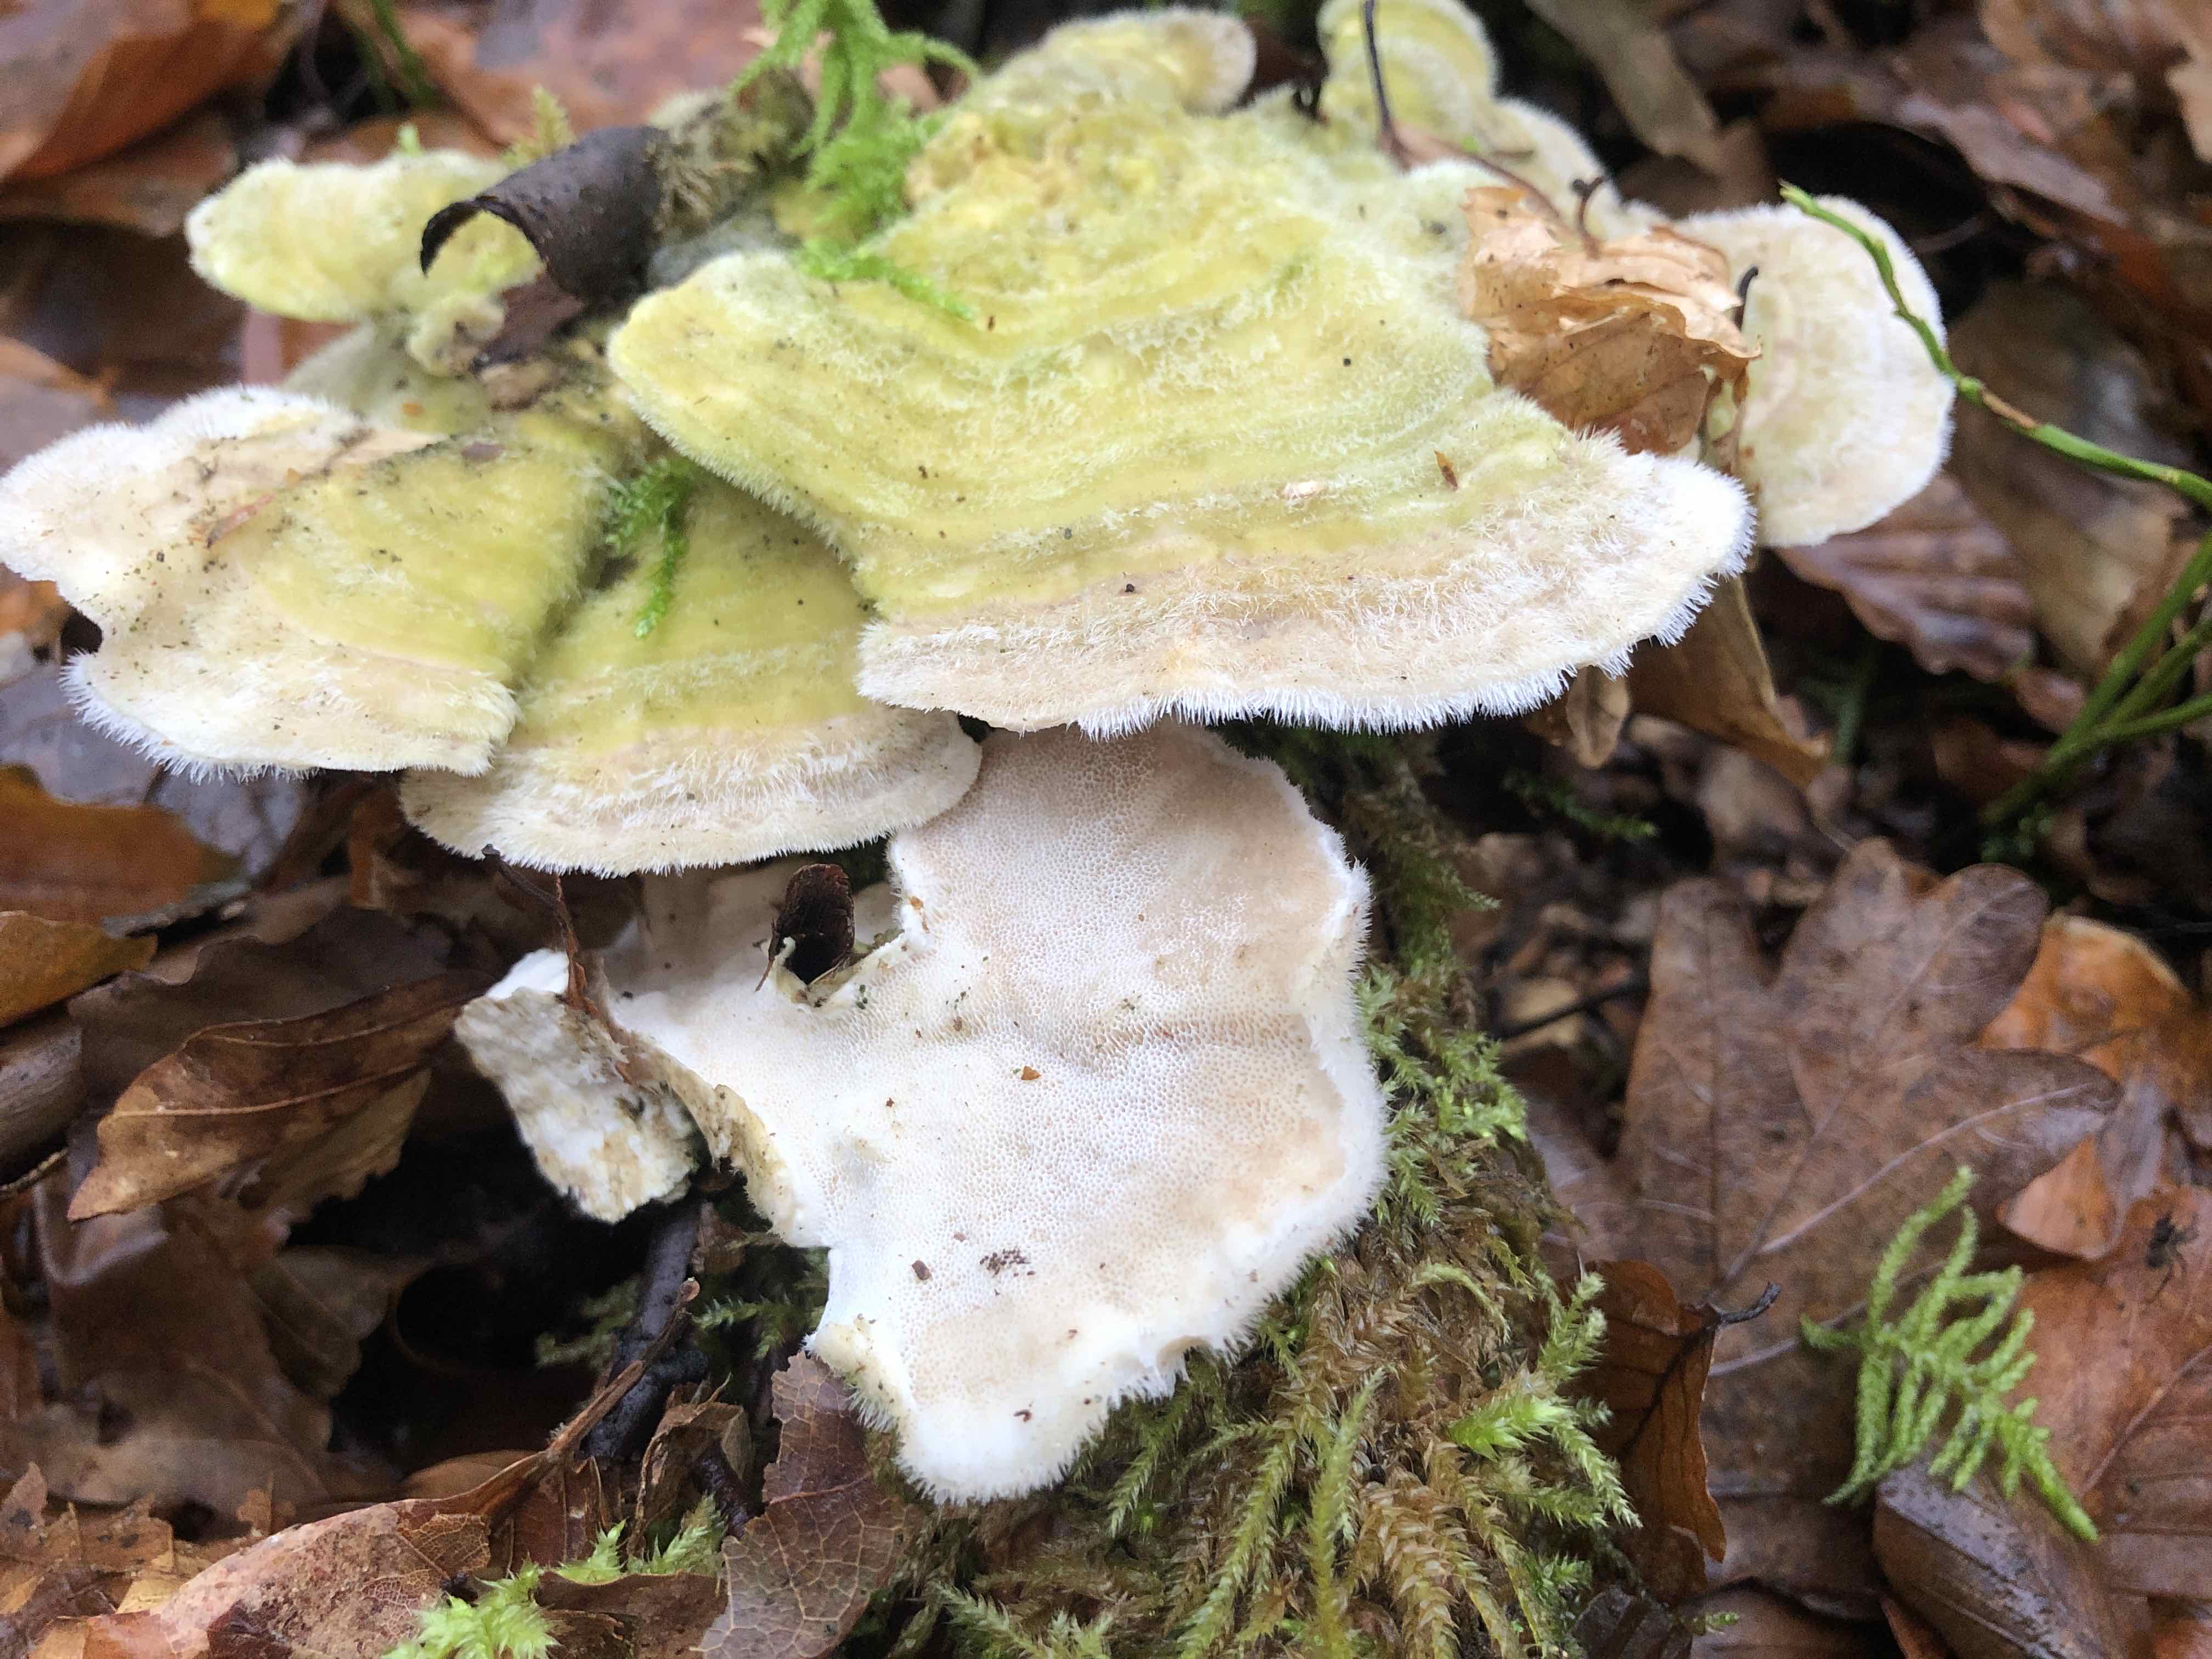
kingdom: Fungi
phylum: Basidiomycota
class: Agaricomycetes
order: Polyporales
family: Polyporaceae
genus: Trametes
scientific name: Trametes hirsuta
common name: håret læderporesvamp
